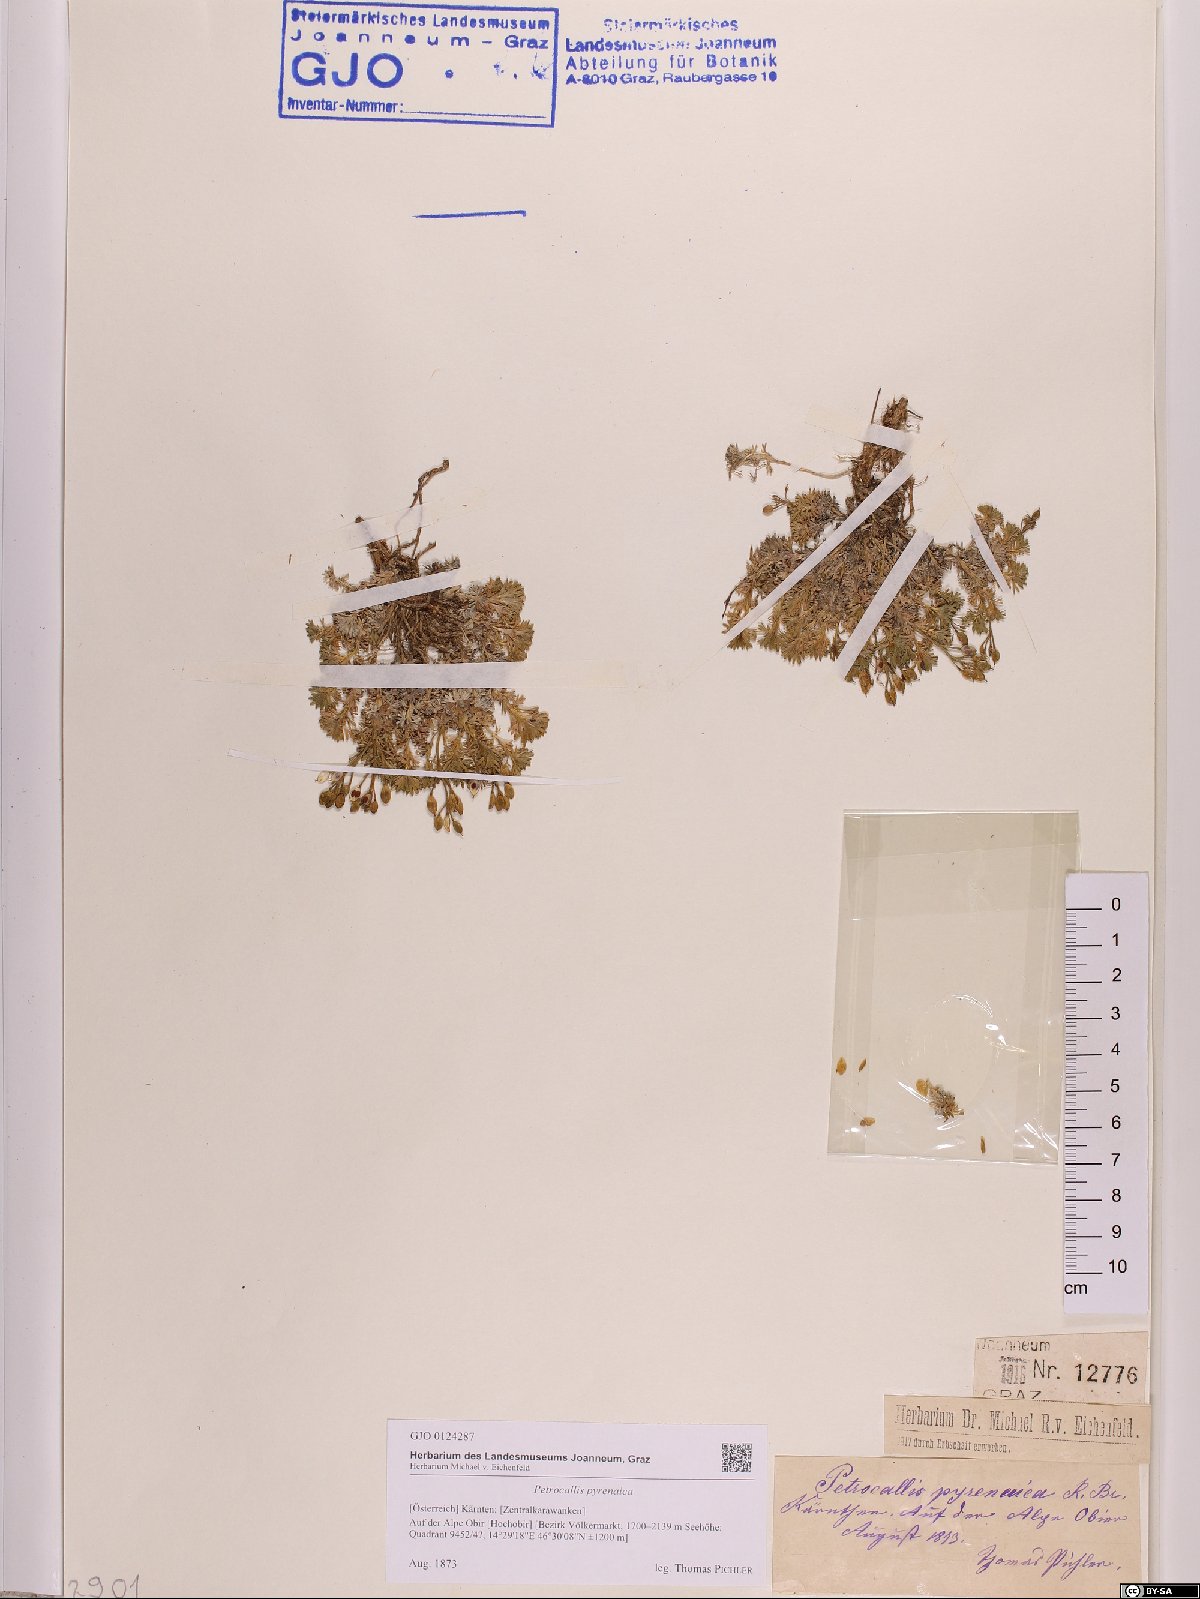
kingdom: Plantae
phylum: Tracheophyta
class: Magnoliopsida
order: Brassicales
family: Brassicaceae
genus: Petrocallis
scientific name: Petrocallis pyrenaica
